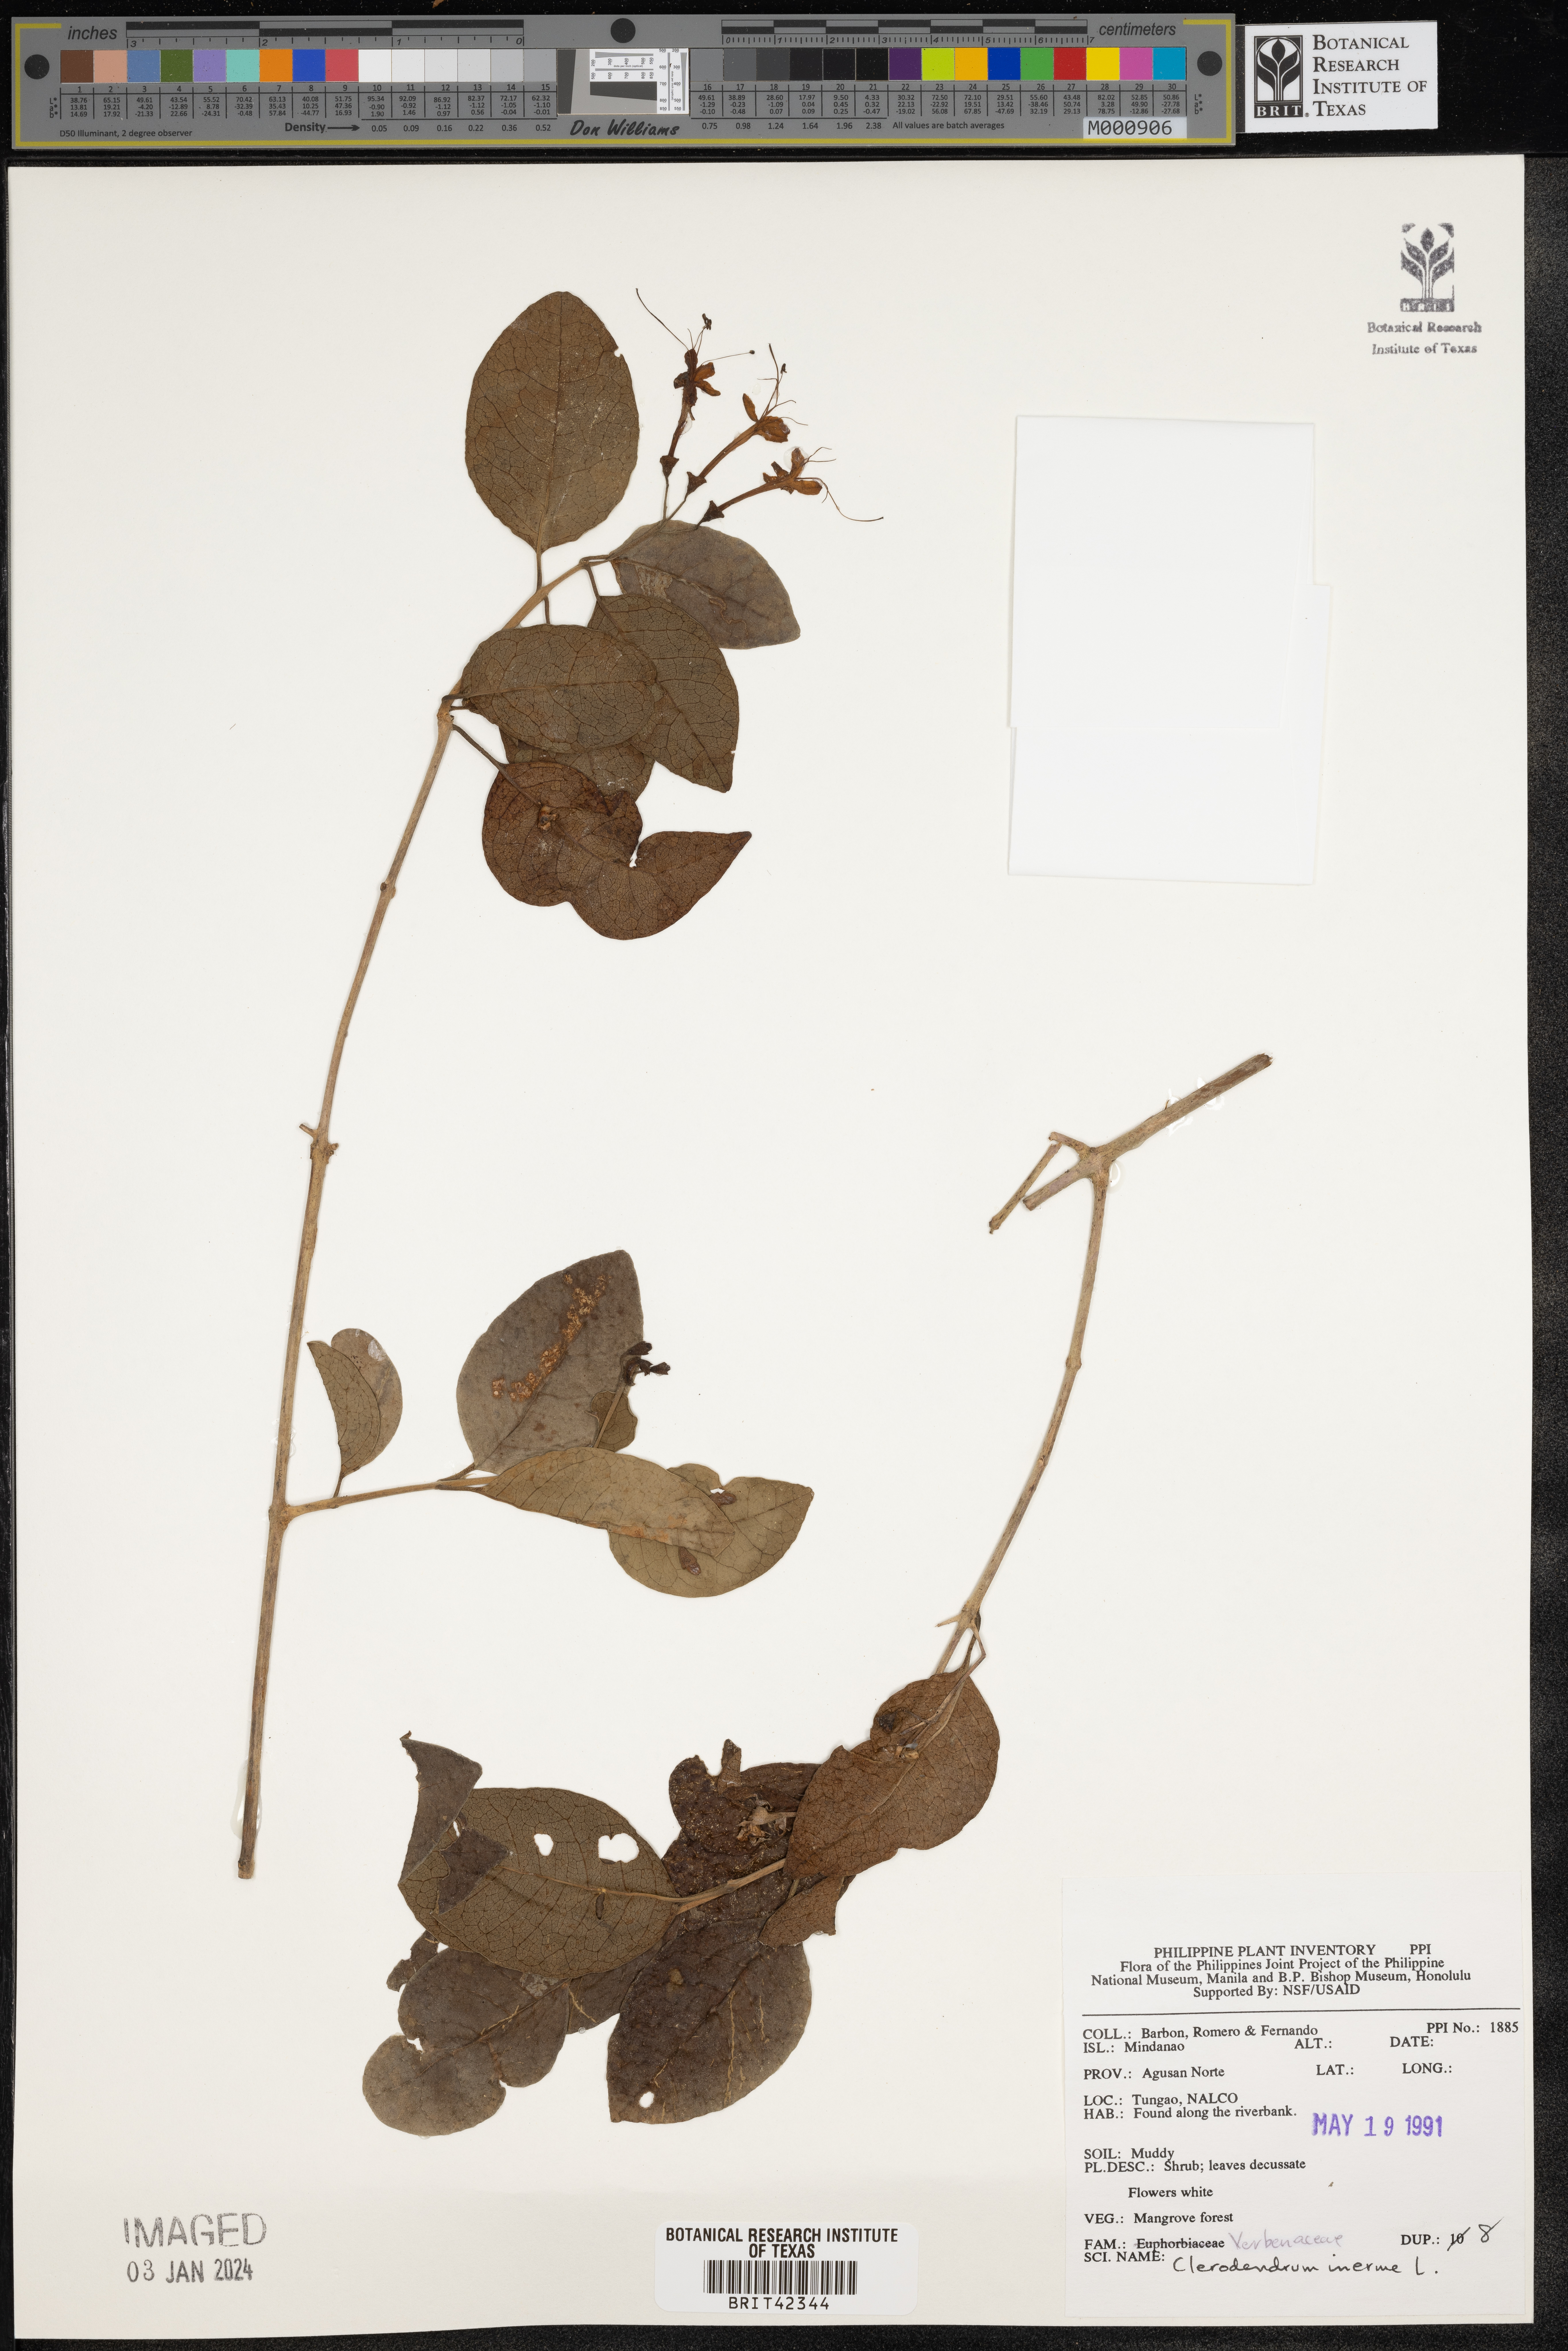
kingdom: Plantae
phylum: Tracheophyta
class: Magnoliopsida
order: Lamiales
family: Lamiaceae
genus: Volkameria
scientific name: Volkameria inermis
